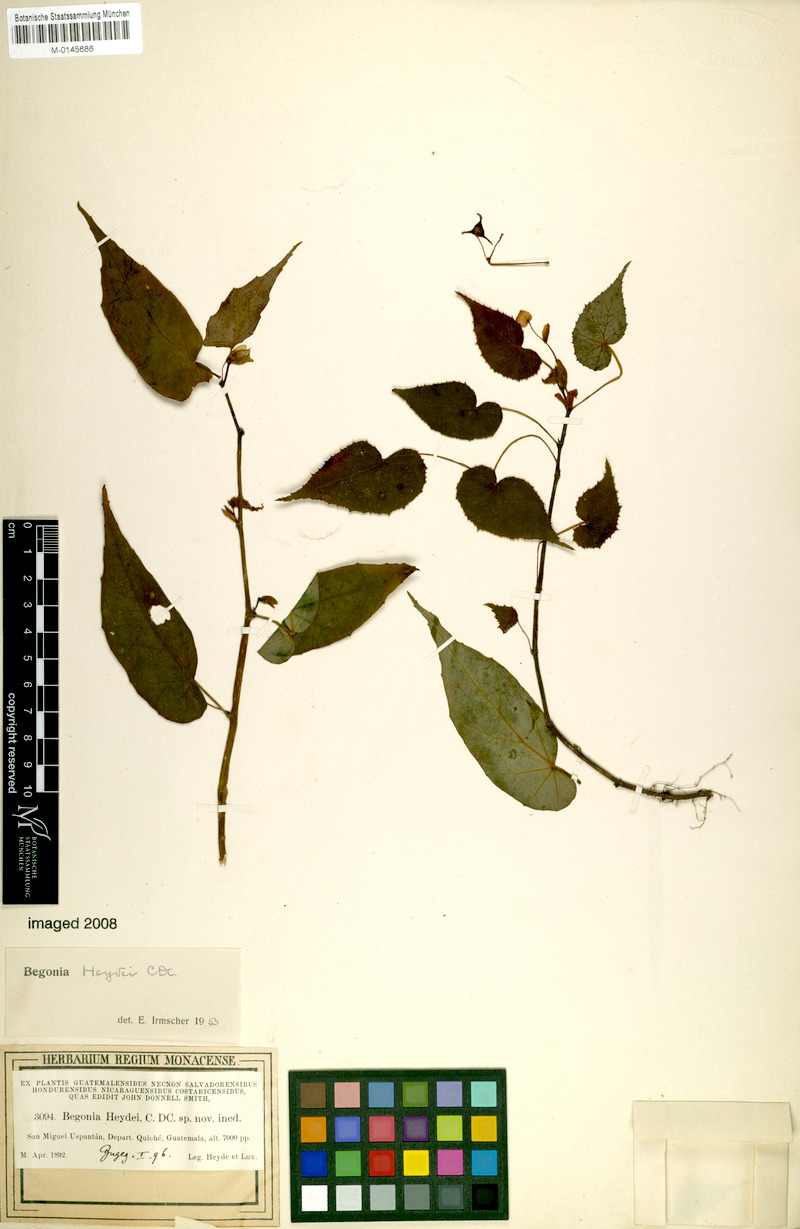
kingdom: Plantae
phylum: Tracheophyta
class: Magnoliopsida
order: Cucurbitales
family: Begoniaceae
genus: Begonia
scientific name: Begonia heydei
